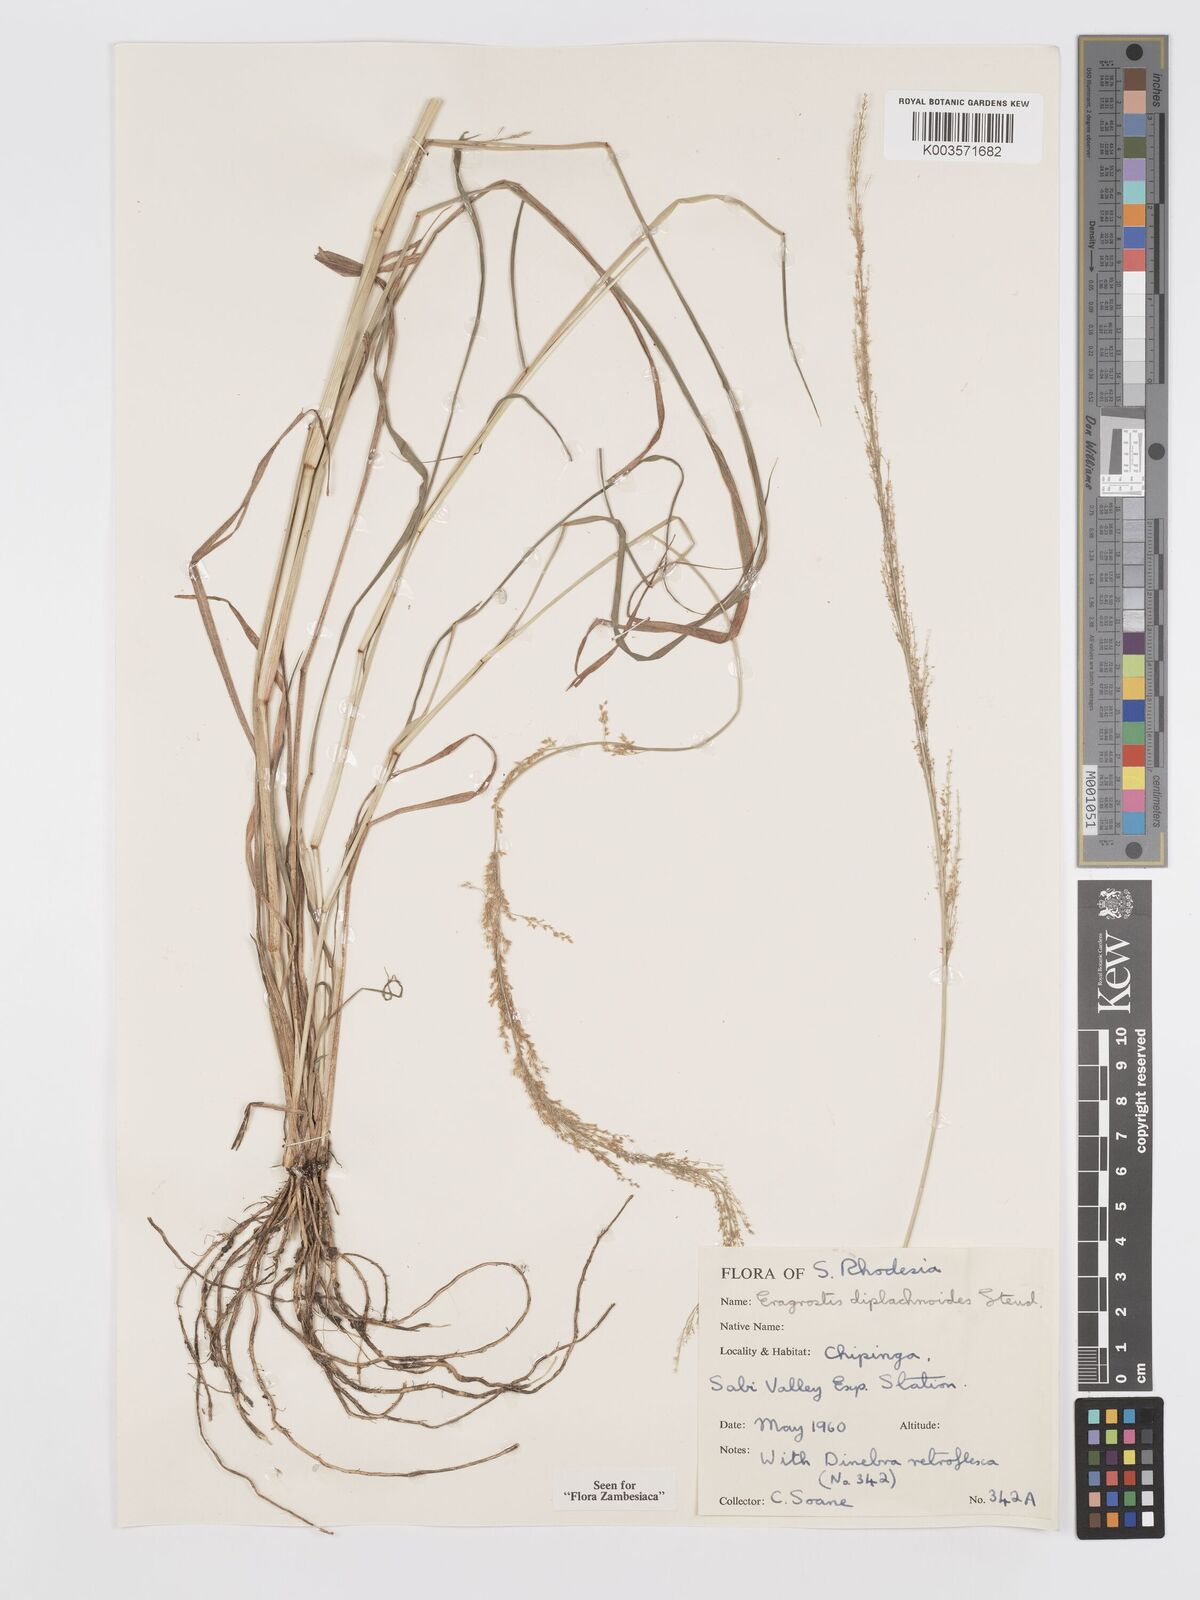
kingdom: Plantae
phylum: Tracheophyta
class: Liliopsida
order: Poales
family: Poaceae
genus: Eragrostis
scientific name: Eragrostis japonica
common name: Pond lovegrass
